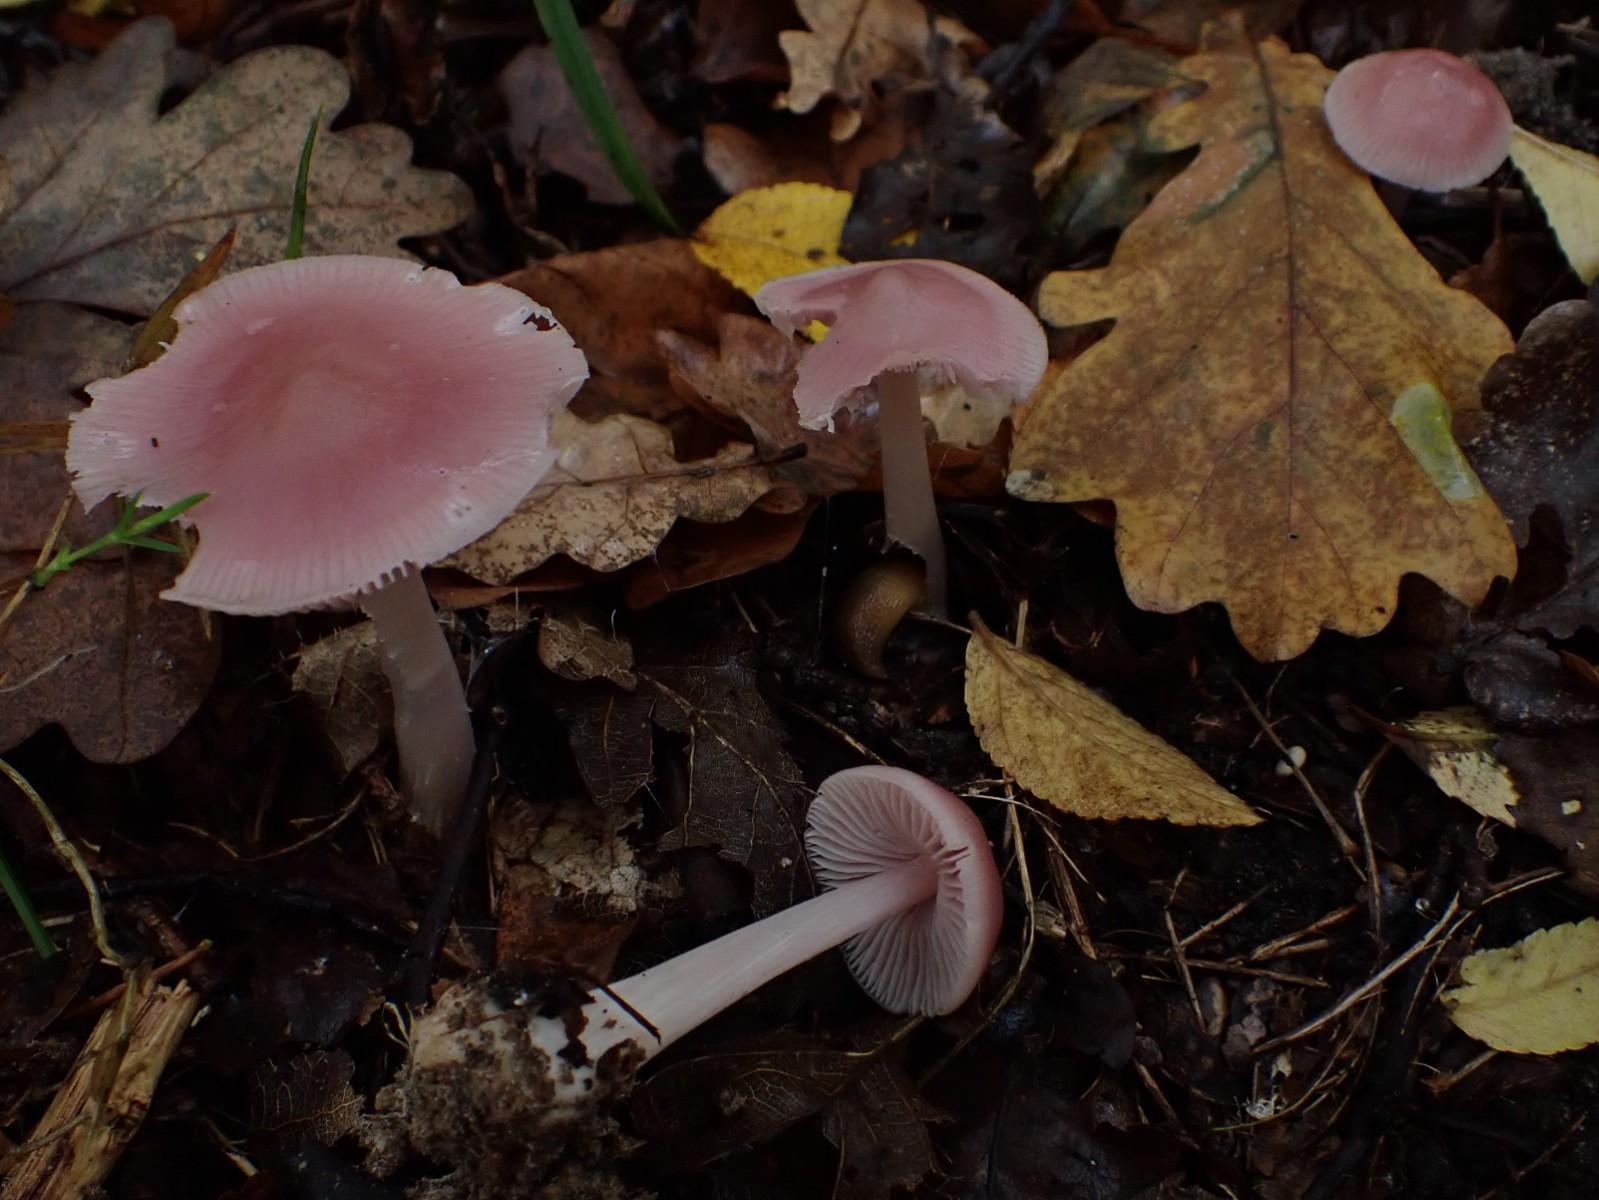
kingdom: Fungi
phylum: Basidiomycota
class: Agaricomycetes
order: Agaricales
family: Mycenaceae
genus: Mycena
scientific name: Mycena rosea
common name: rosa huesvamp
